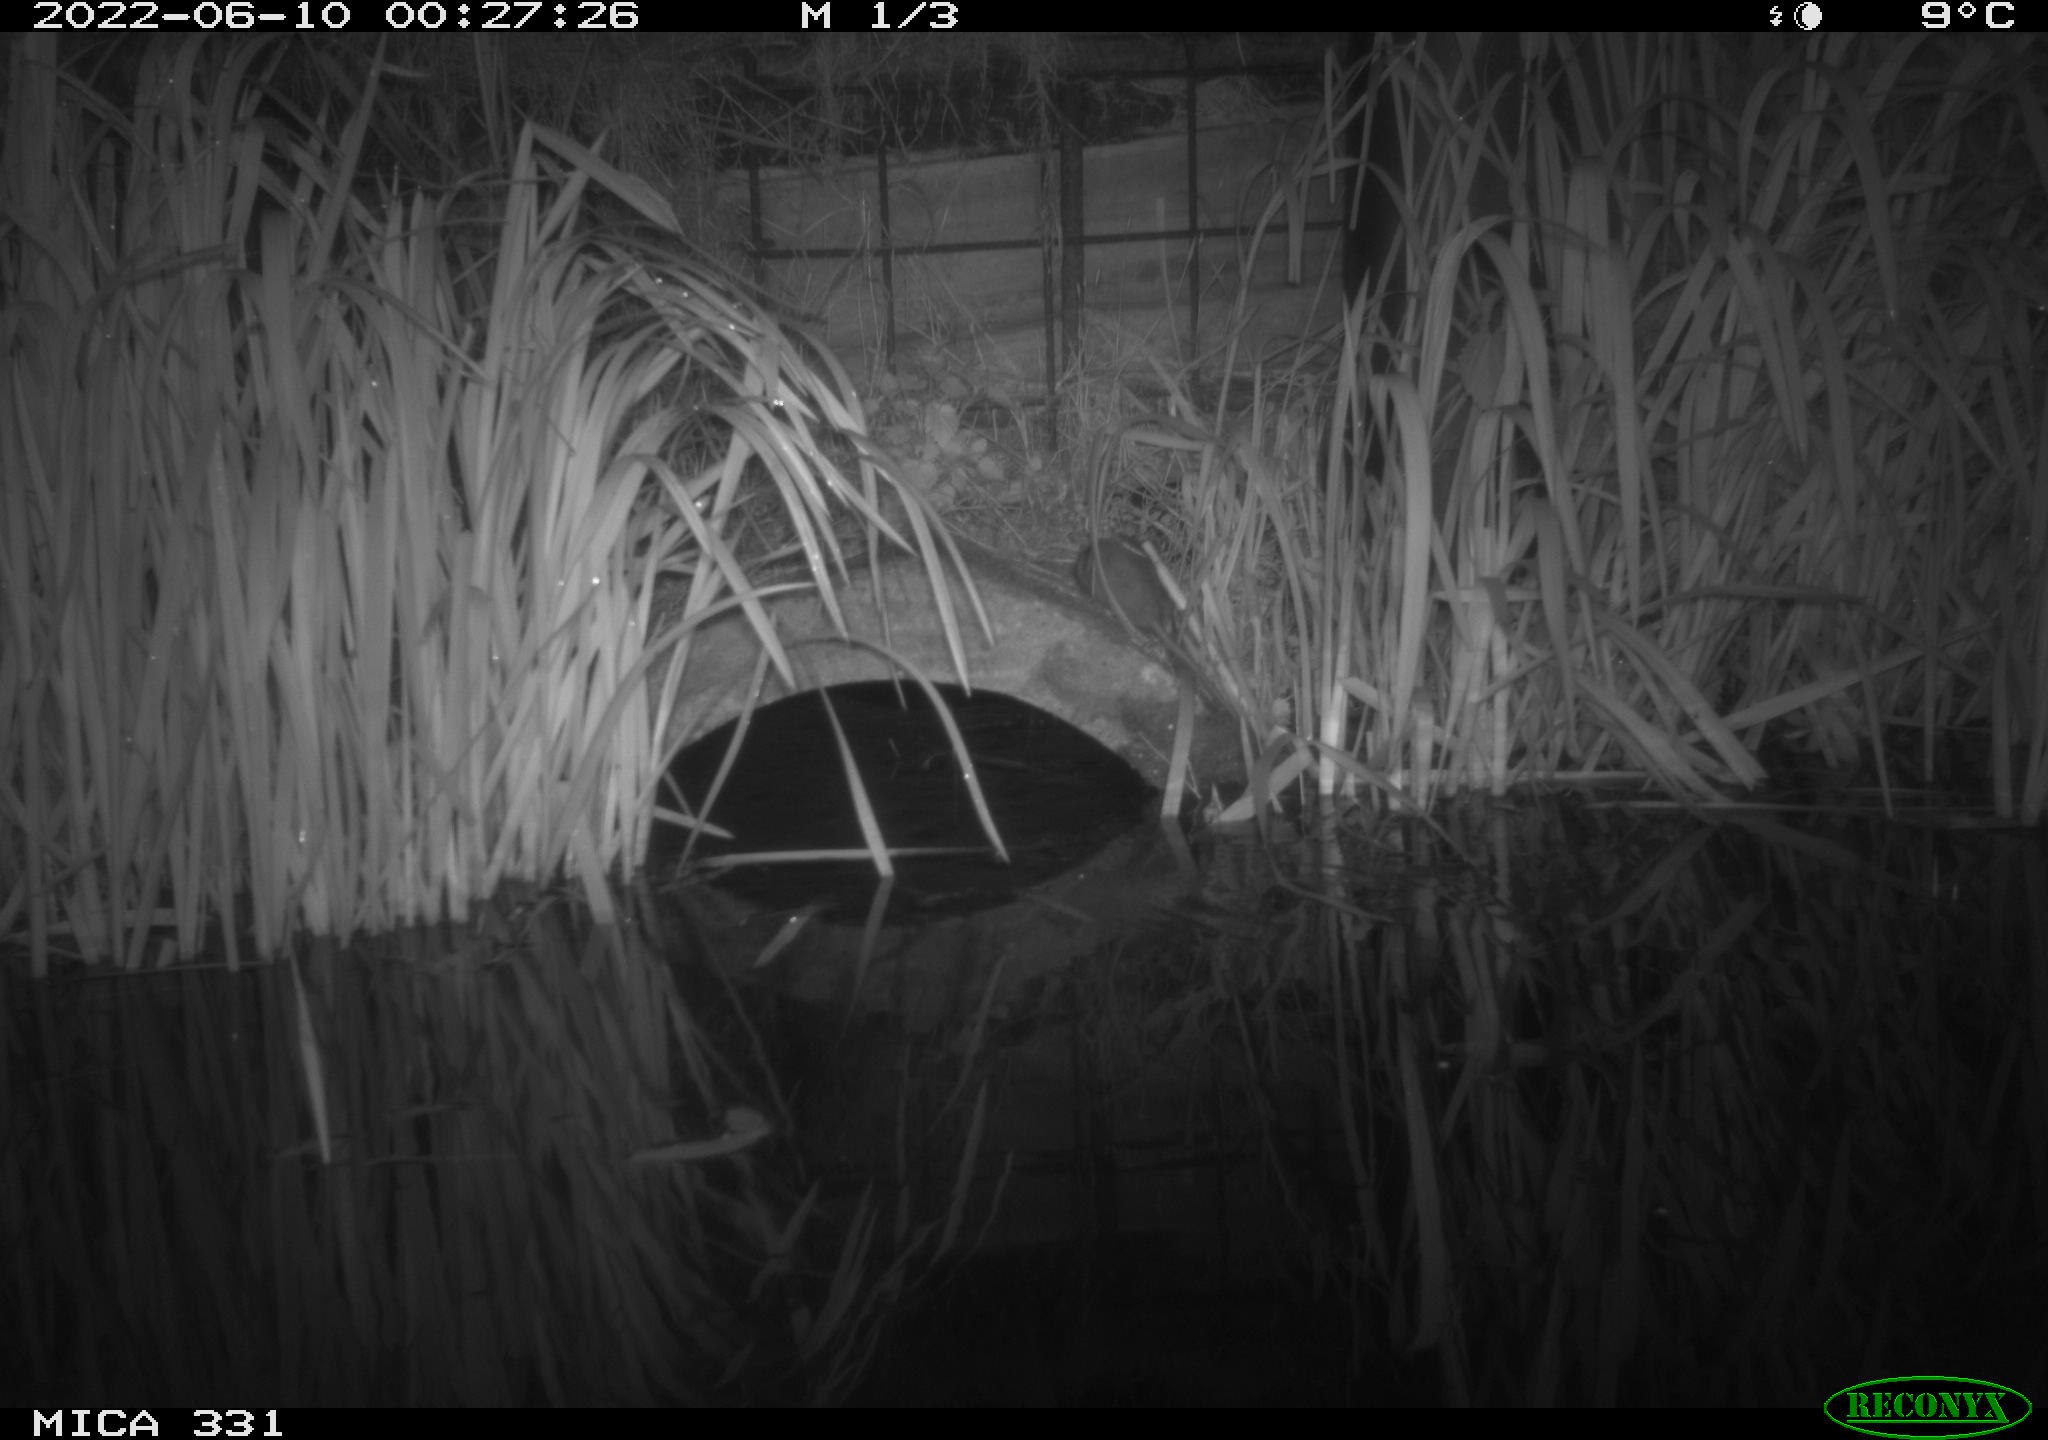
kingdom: Animalia
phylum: Chordata
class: Mammalia
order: Rodentia
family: Muridae
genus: Rattus
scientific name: Rattus norvegicus
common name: Brown rat
